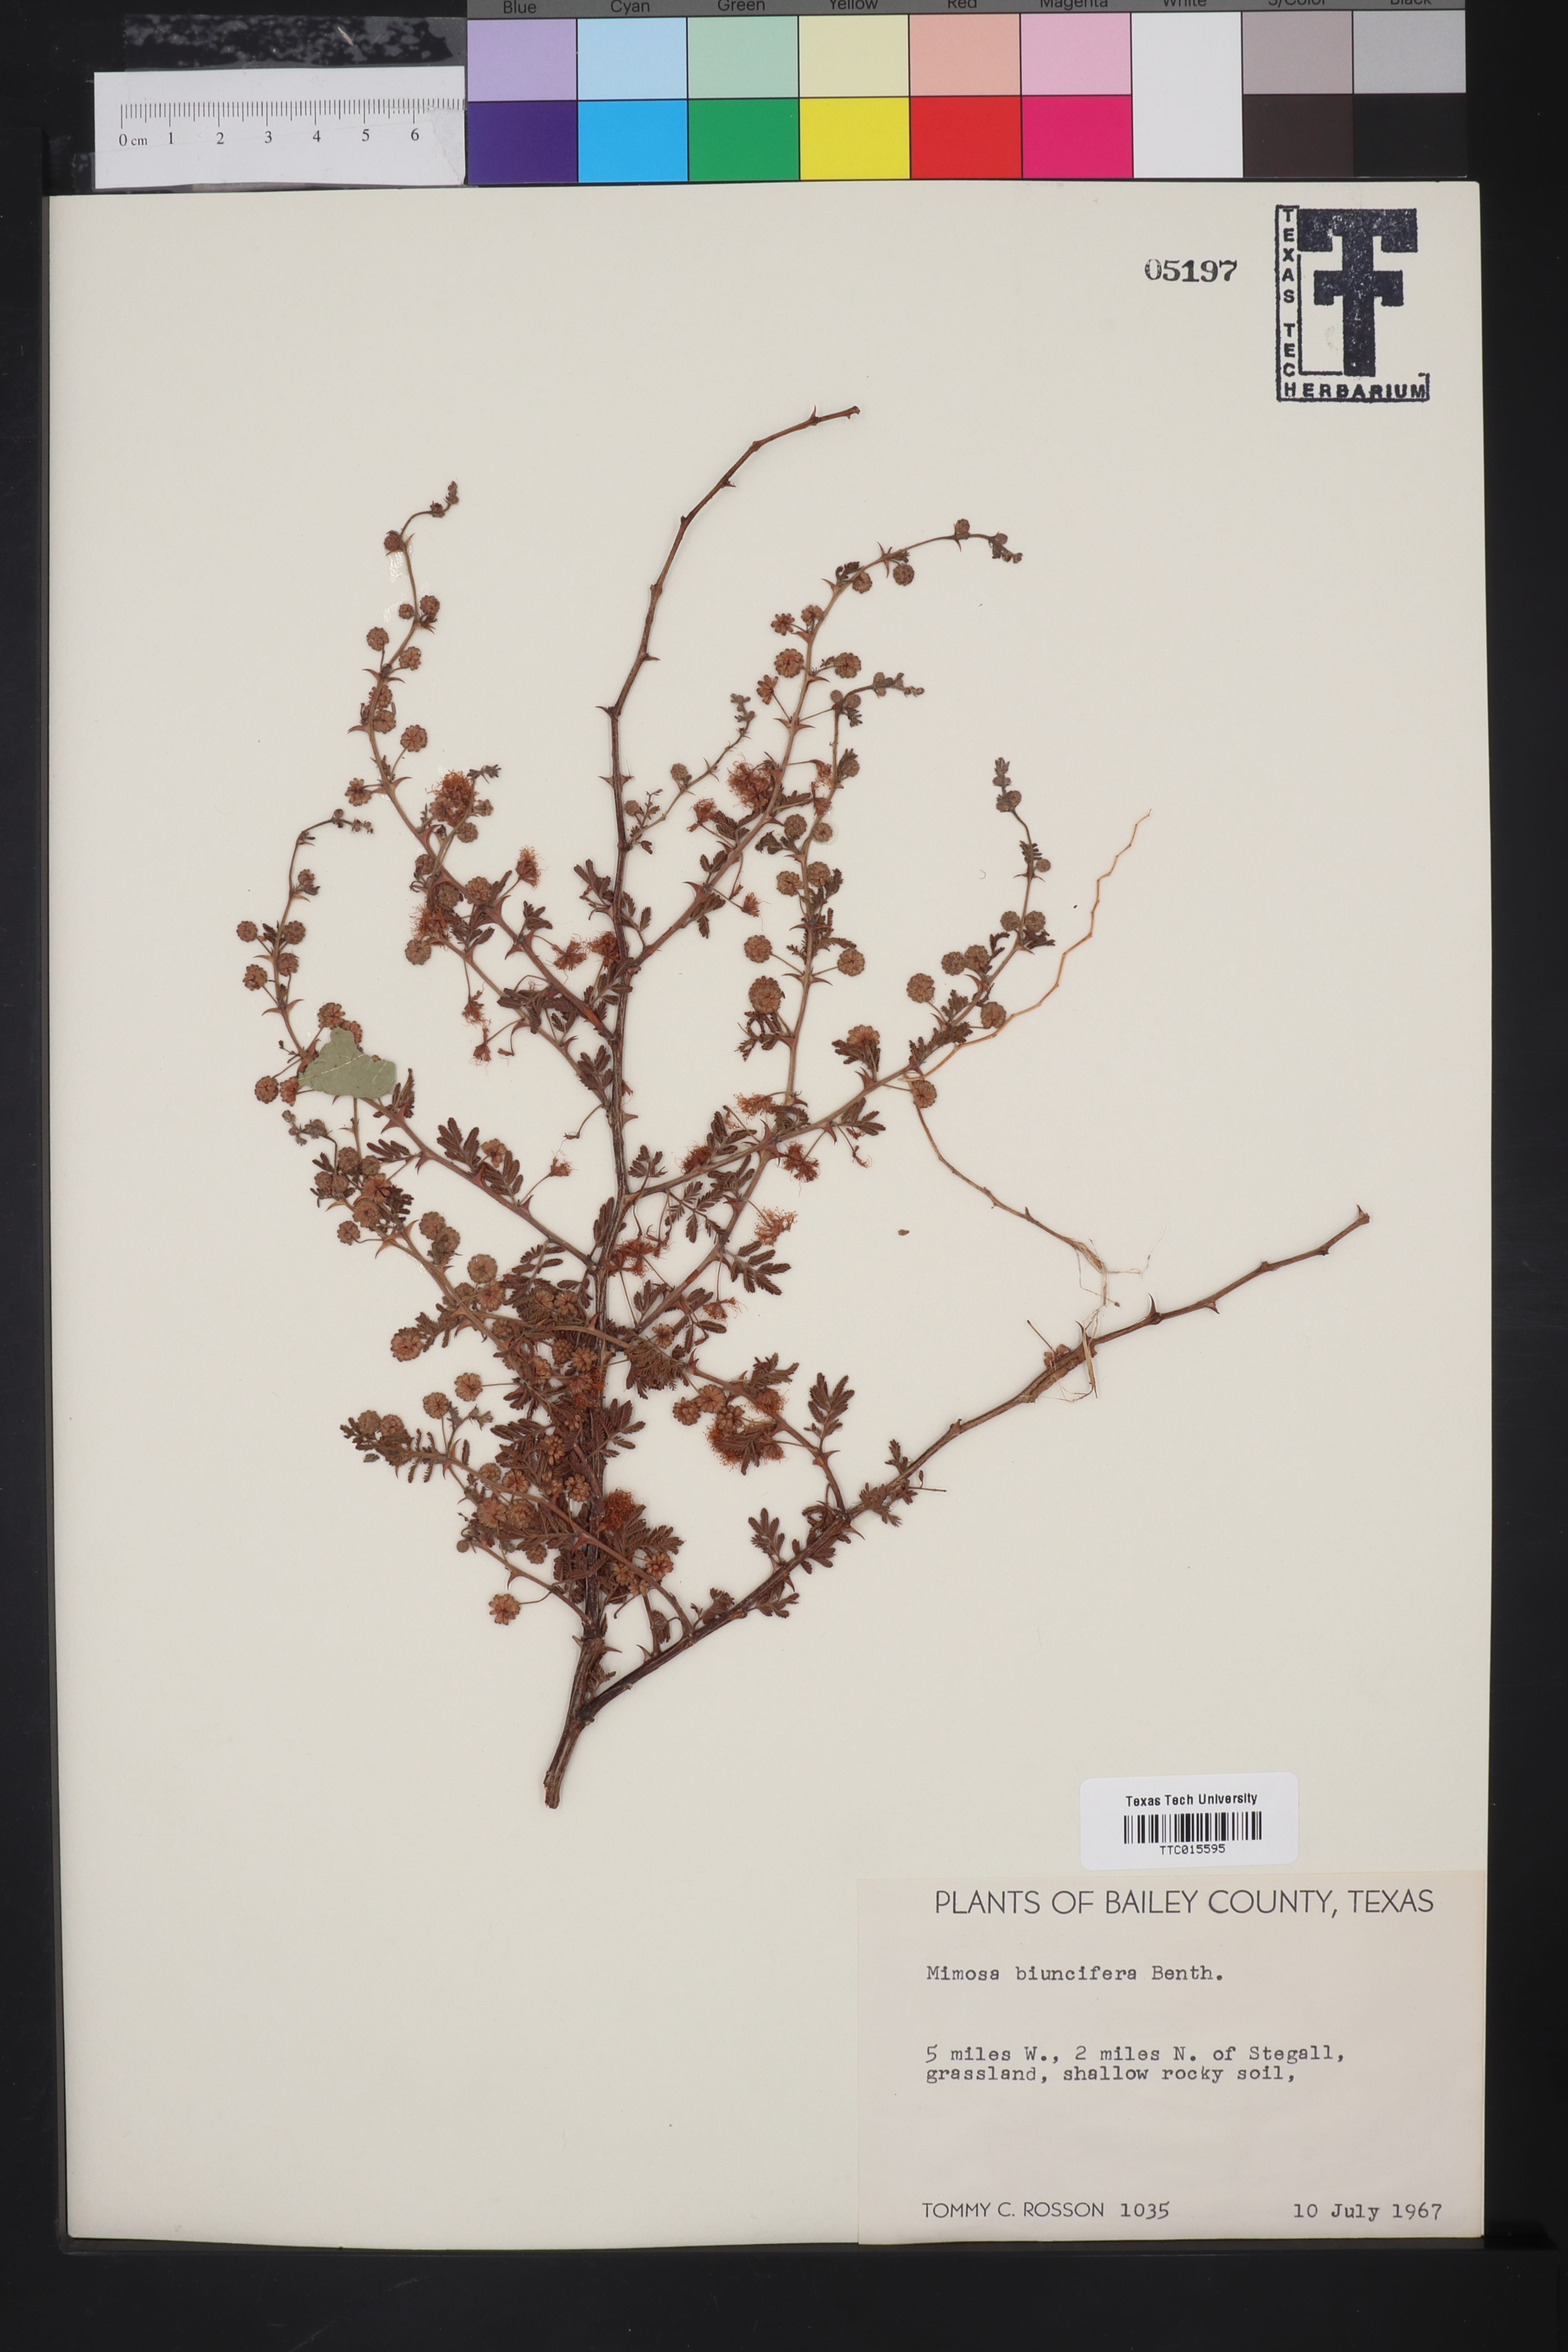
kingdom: Plantae
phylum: Tracheophyta
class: Magnoliopsida
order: Fabales
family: Fabaceae
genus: Mimosa
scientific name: Mimosa biuncifera
